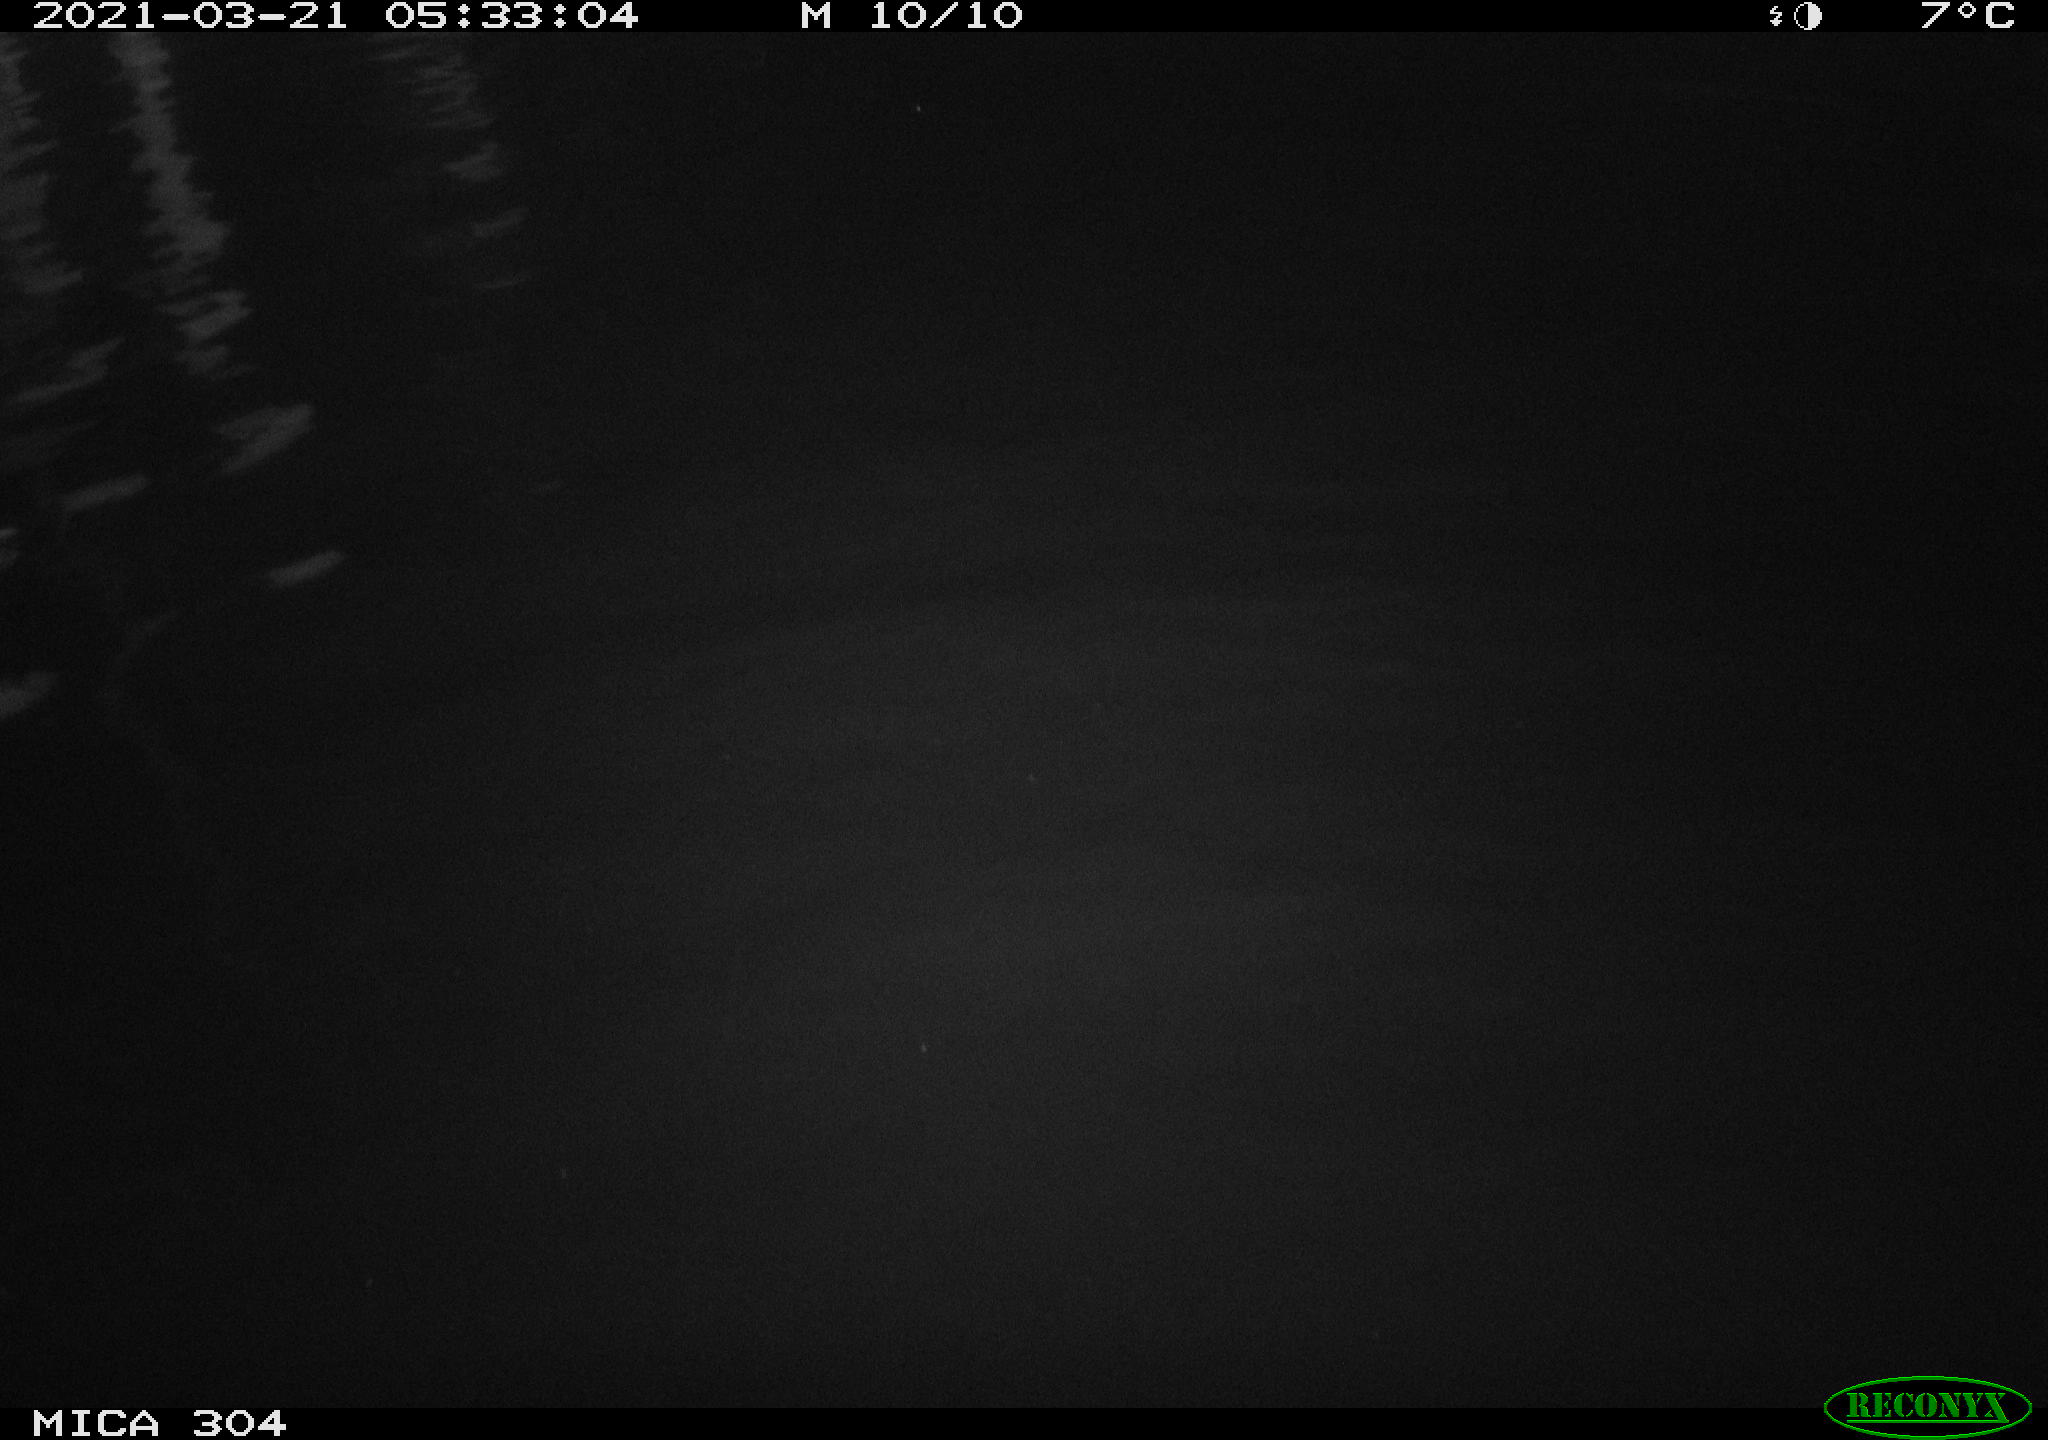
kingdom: Animalia
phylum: Chordata
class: Aves
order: Anseriformes
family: Anatidae
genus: Anas
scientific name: Anas platyrhynchos
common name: Mallard
